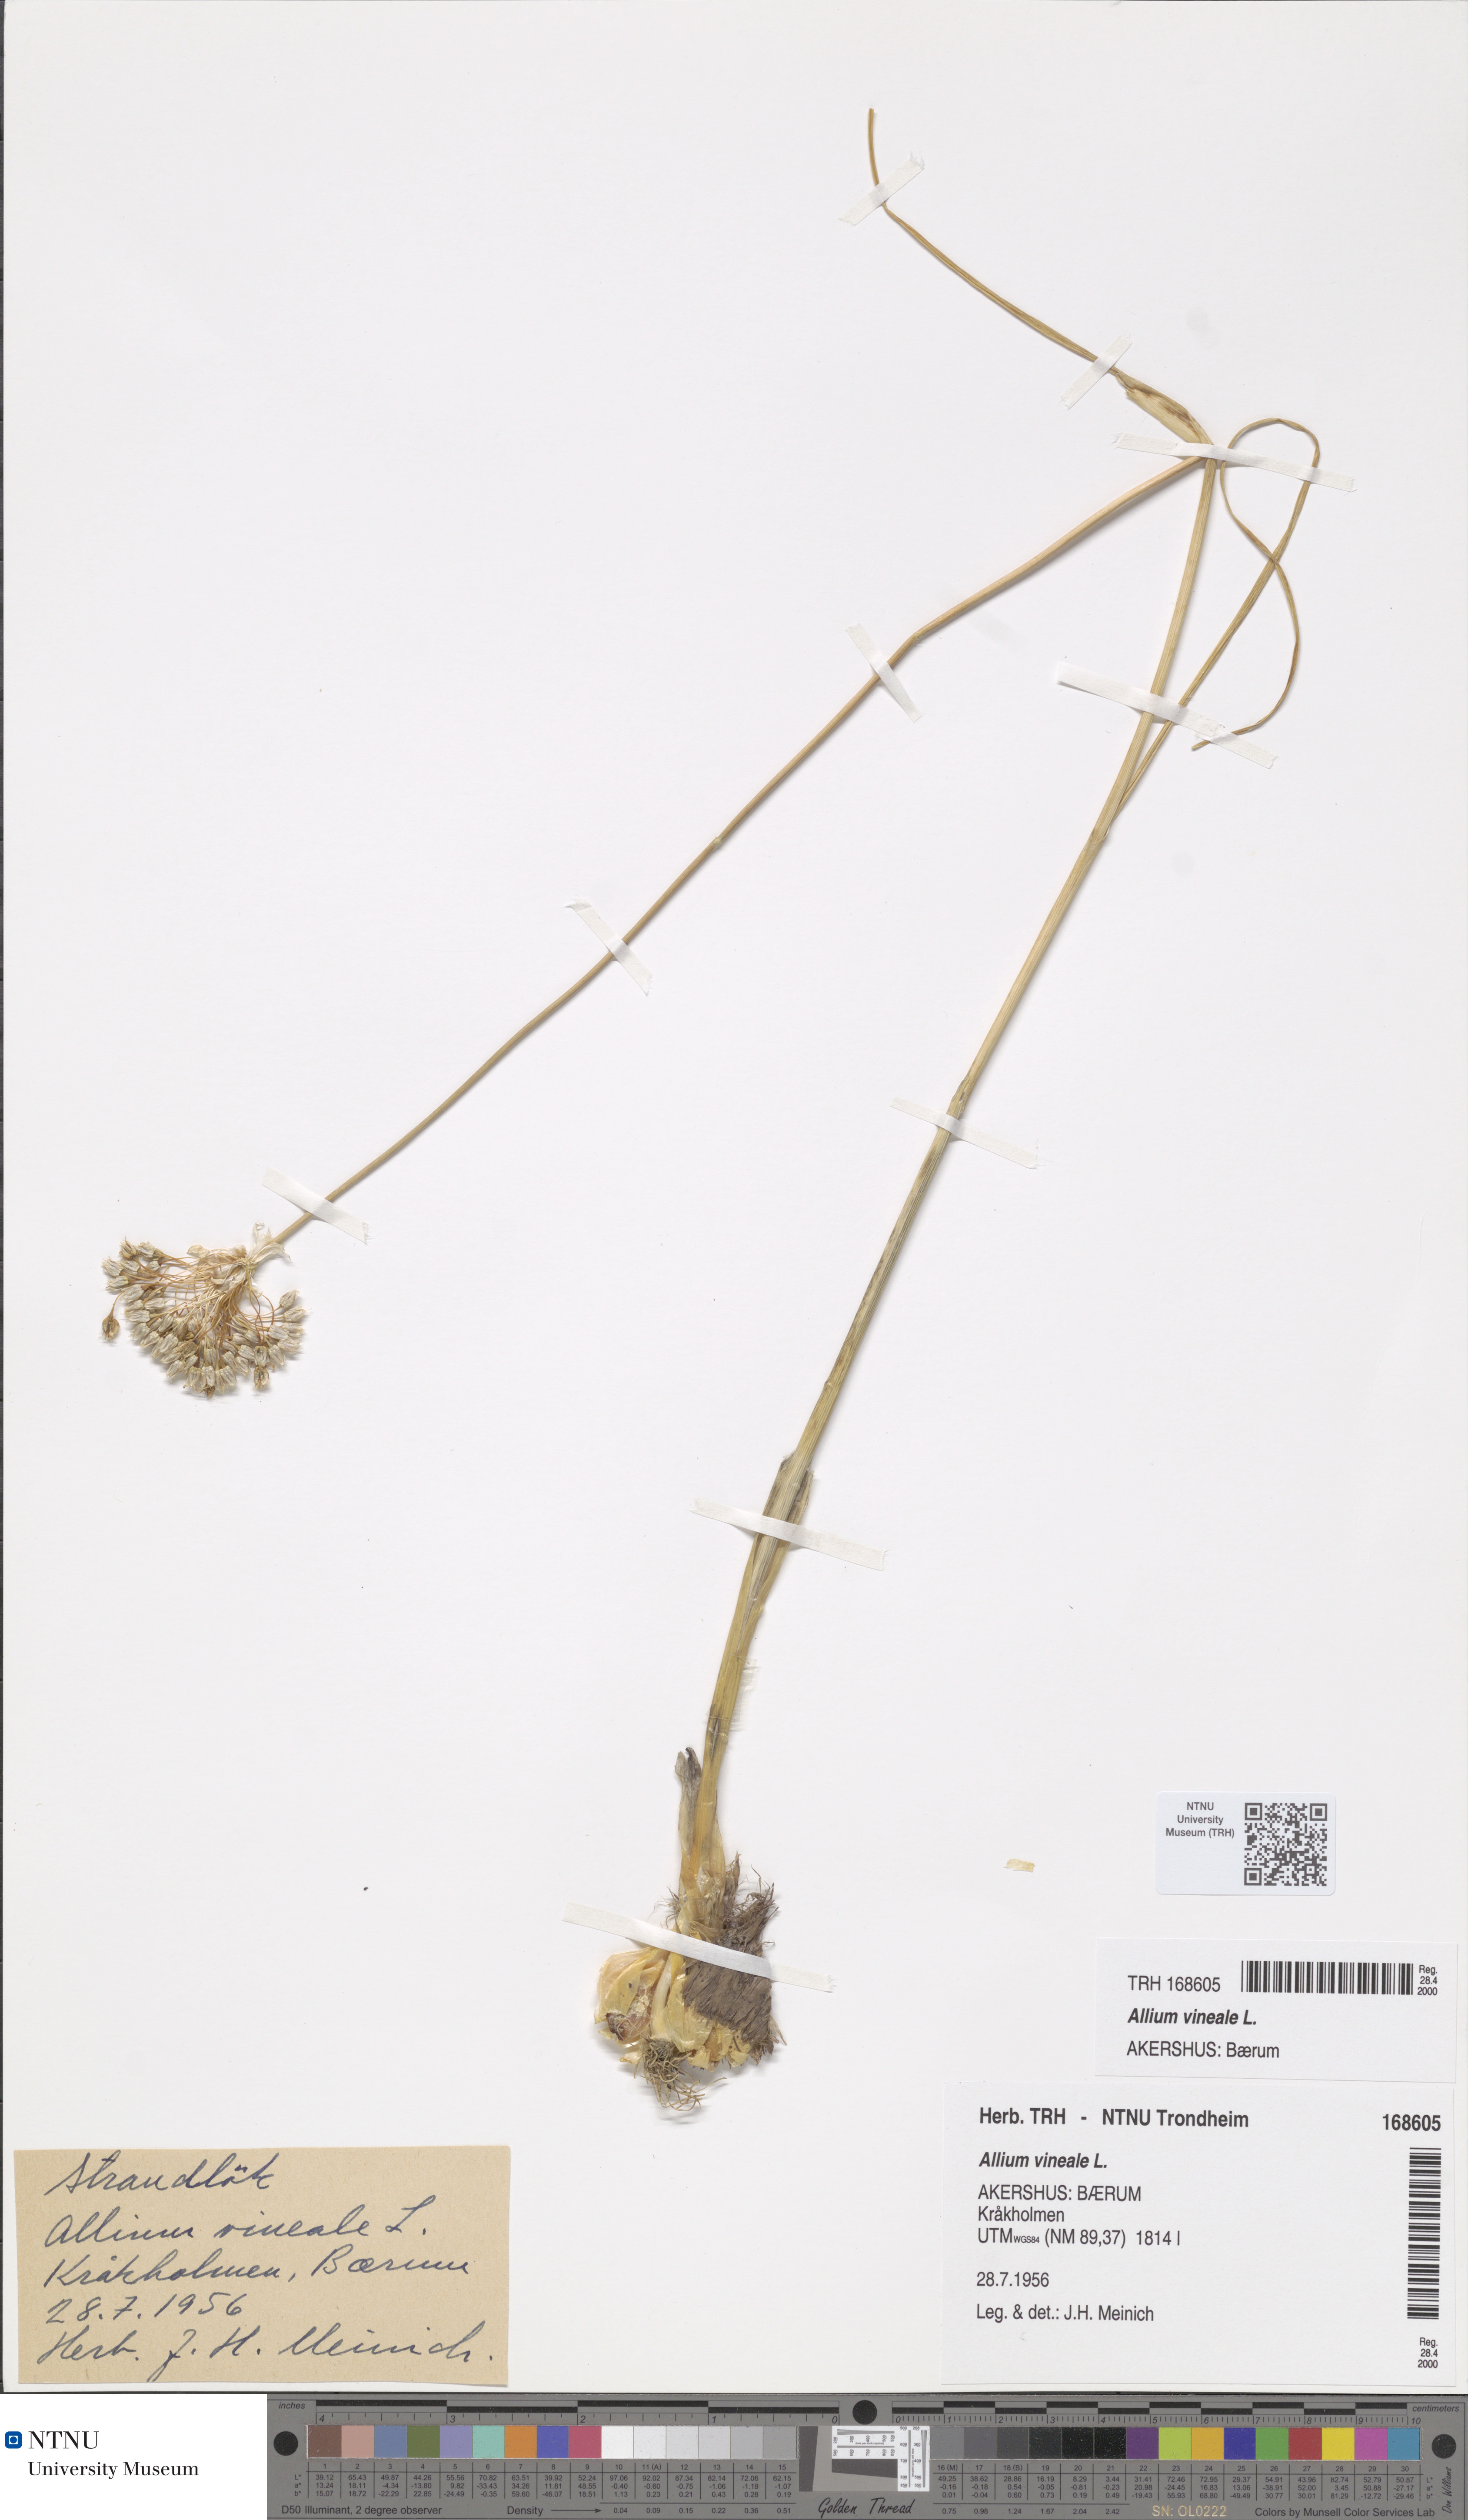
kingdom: Plantae
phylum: Tracheophyta
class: Liliopsida
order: Asparagales
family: Amaryllidaceae
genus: Allium
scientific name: Allium vineale
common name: Crow garlic
